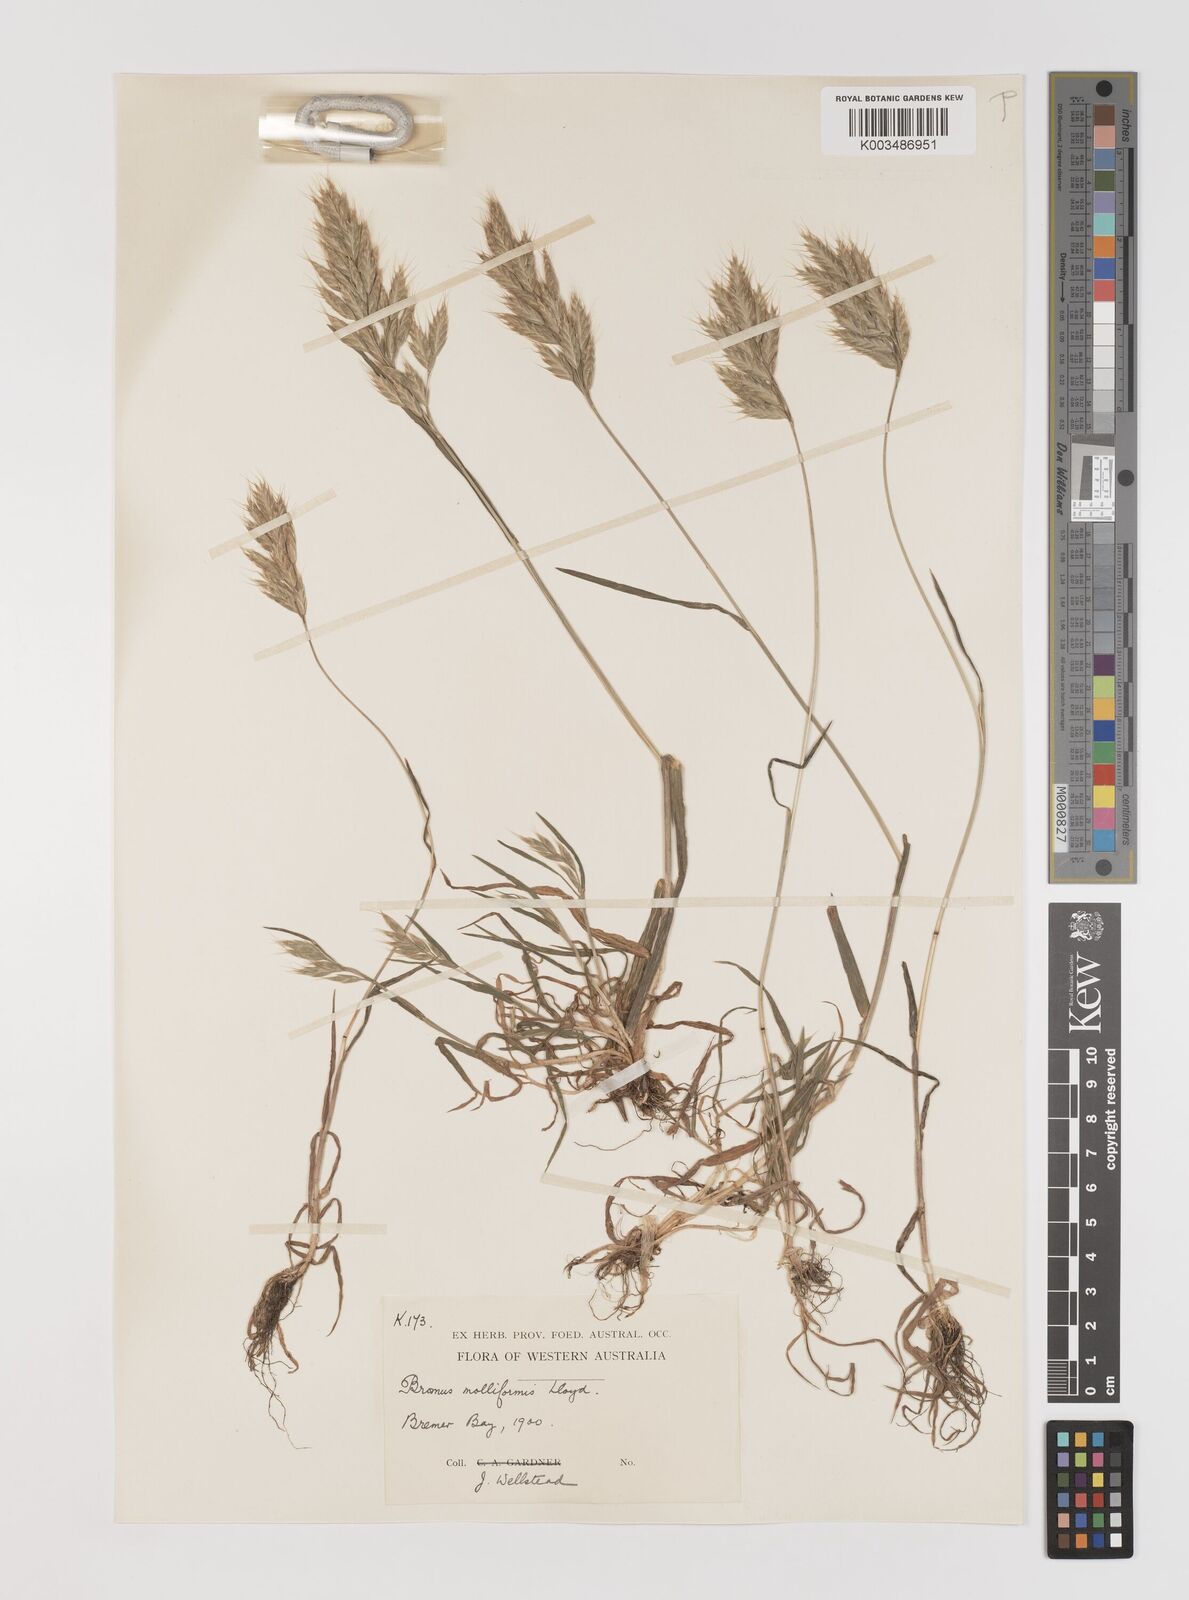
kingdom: Plantae
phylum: Tracheophyta
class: Liliopsida
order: Poales
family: Poaceae
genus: Bromus
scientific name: Bromus hordeaceus
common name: Soft brome
